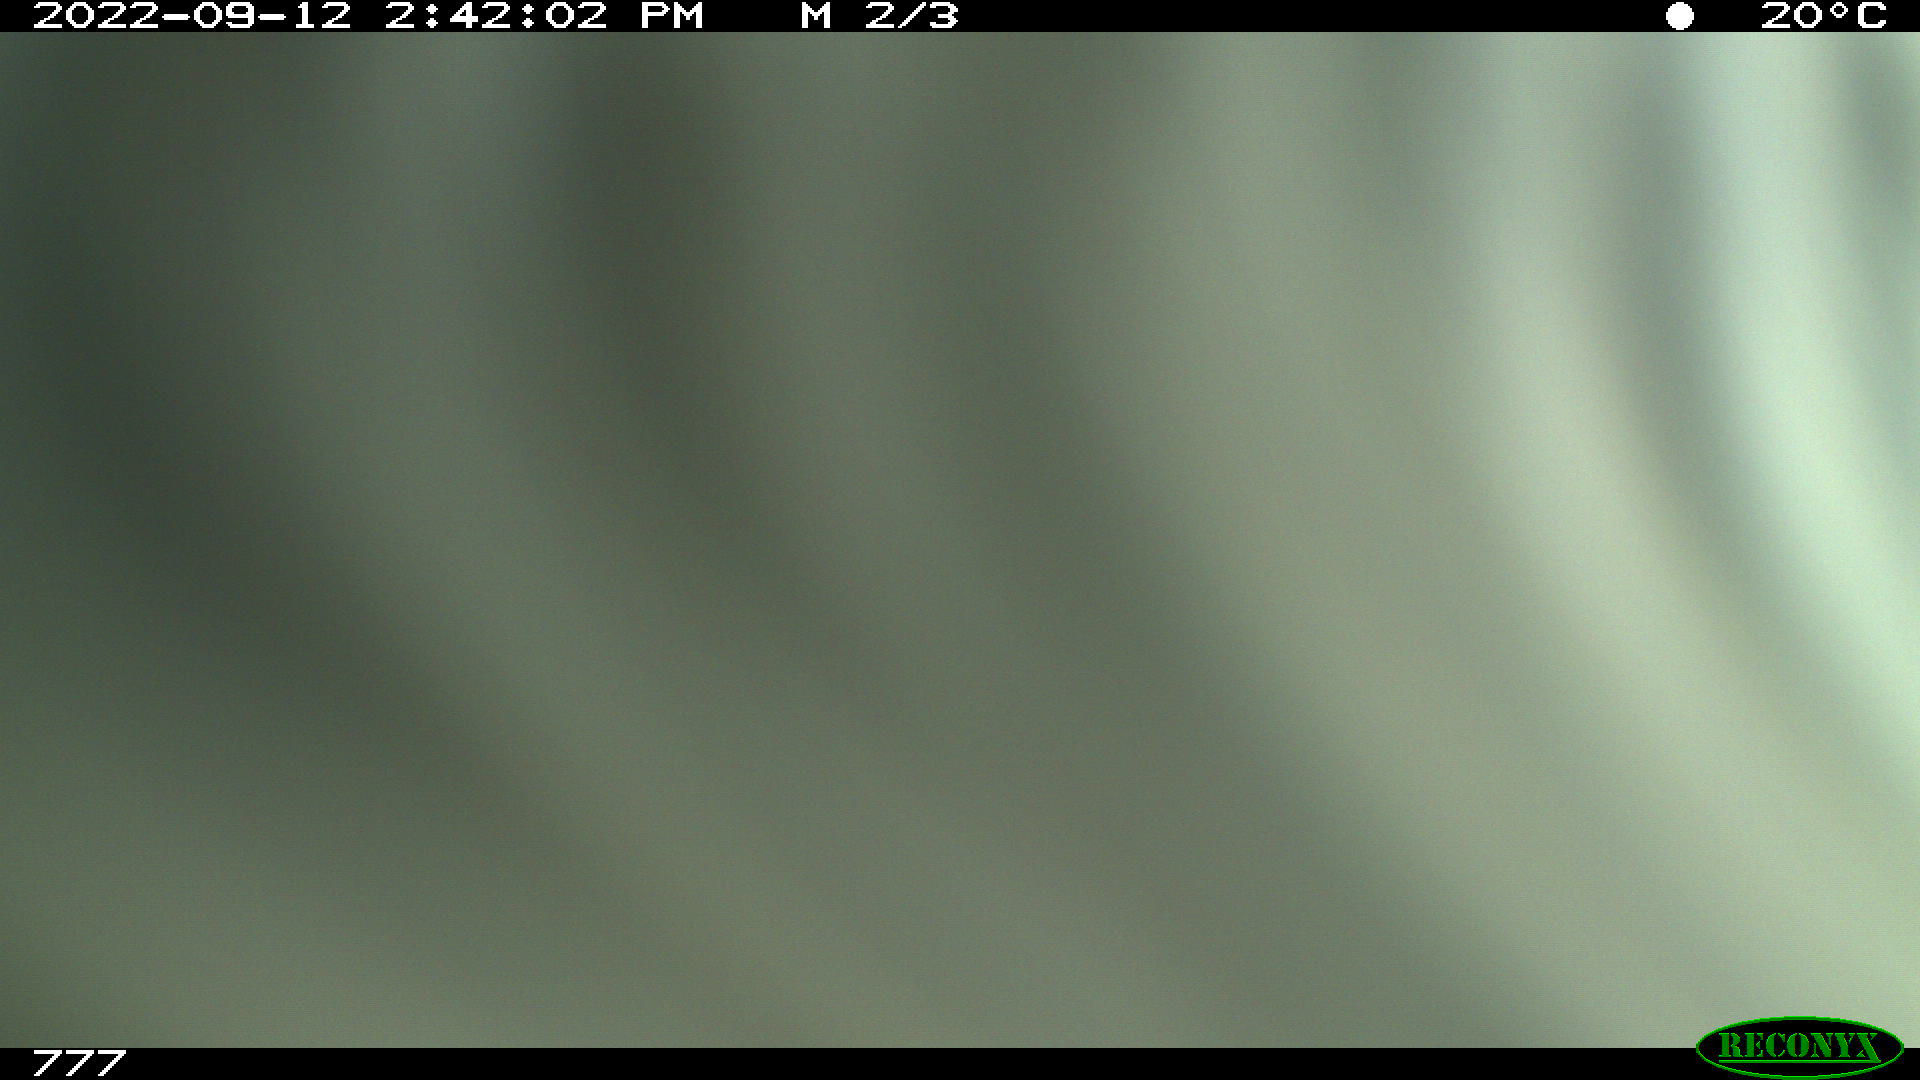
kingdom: Animalia
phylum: Chordata
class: Mammalia
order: Perissodactyla
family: Equidae
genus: Equus
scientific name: Equus caballus
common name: Horse
